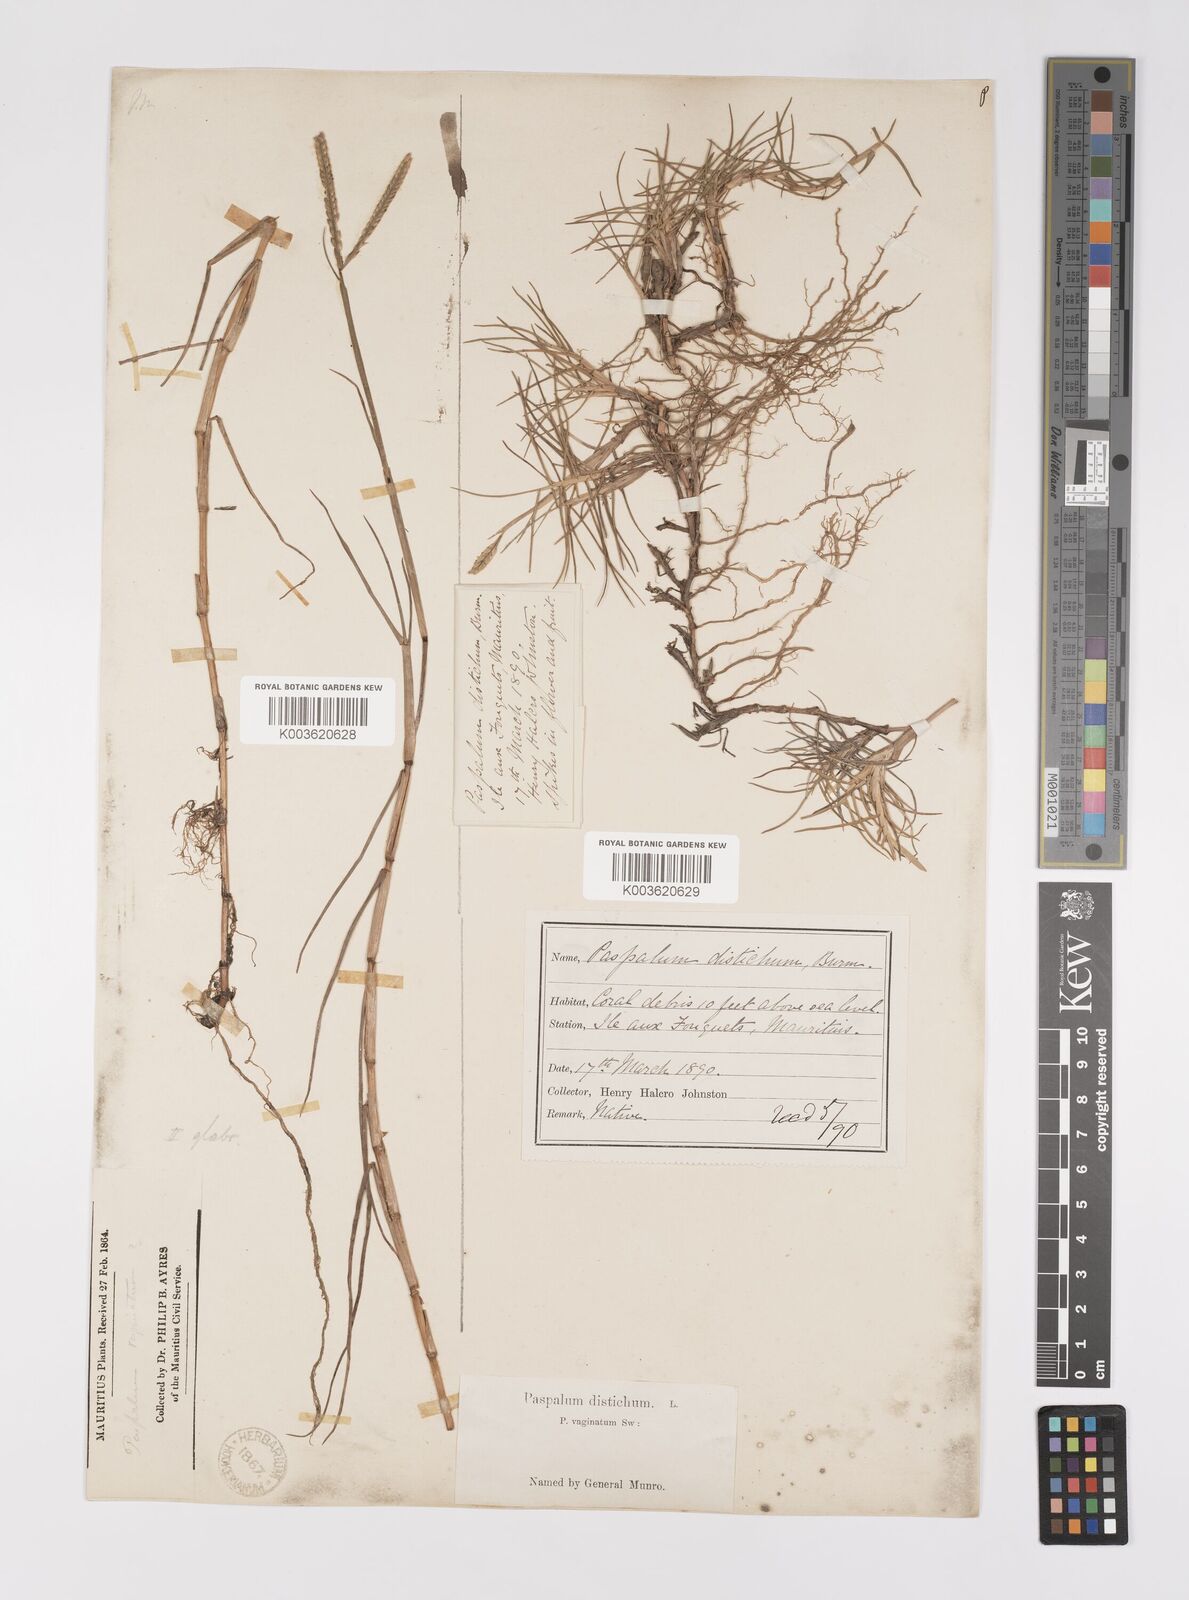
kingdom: Plantae
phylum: Tracheophyta
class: Liliopsida
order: Poales
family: Poaceae
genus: Paspalum
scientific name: Paspalum vaginatum
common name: Seashore paspalum
